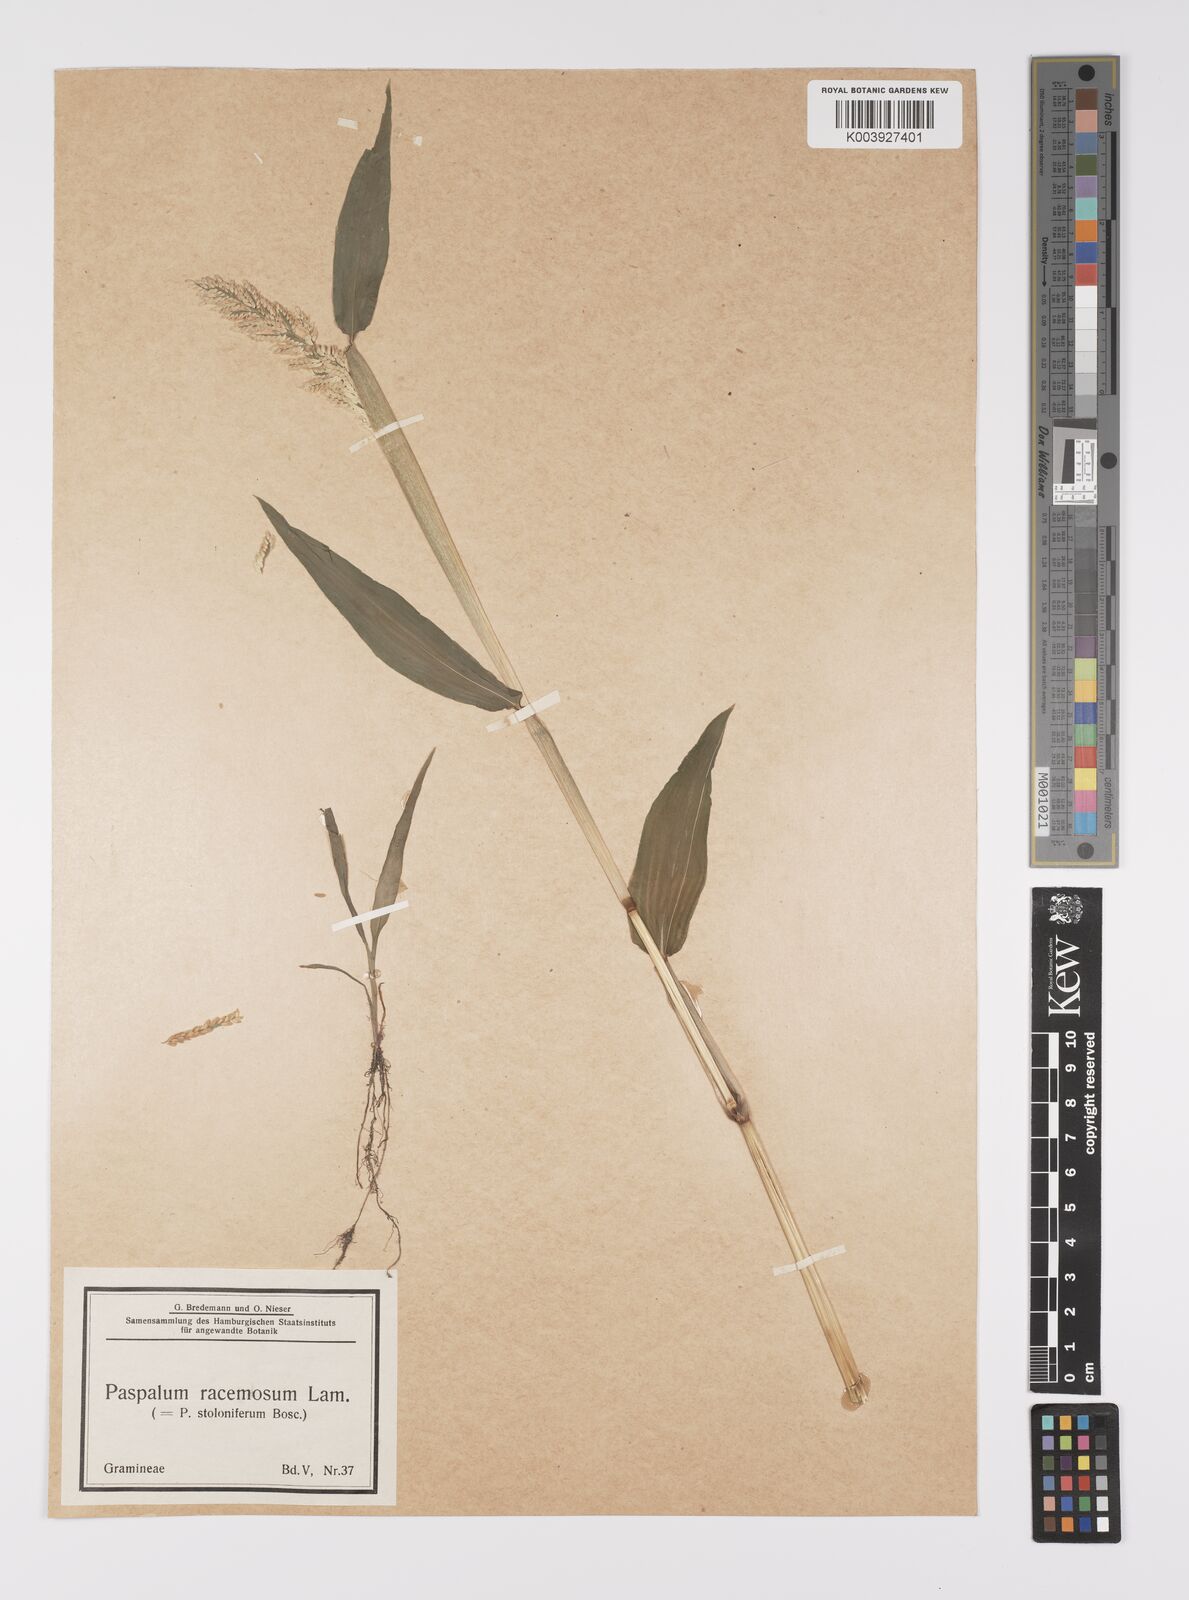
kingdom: Plantae
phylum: Tracheophyta
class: Liliopsida
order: Poales
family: Poaceae
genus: Paspalum
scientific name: Paspalum racemosum
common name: Peruvian paspalum
